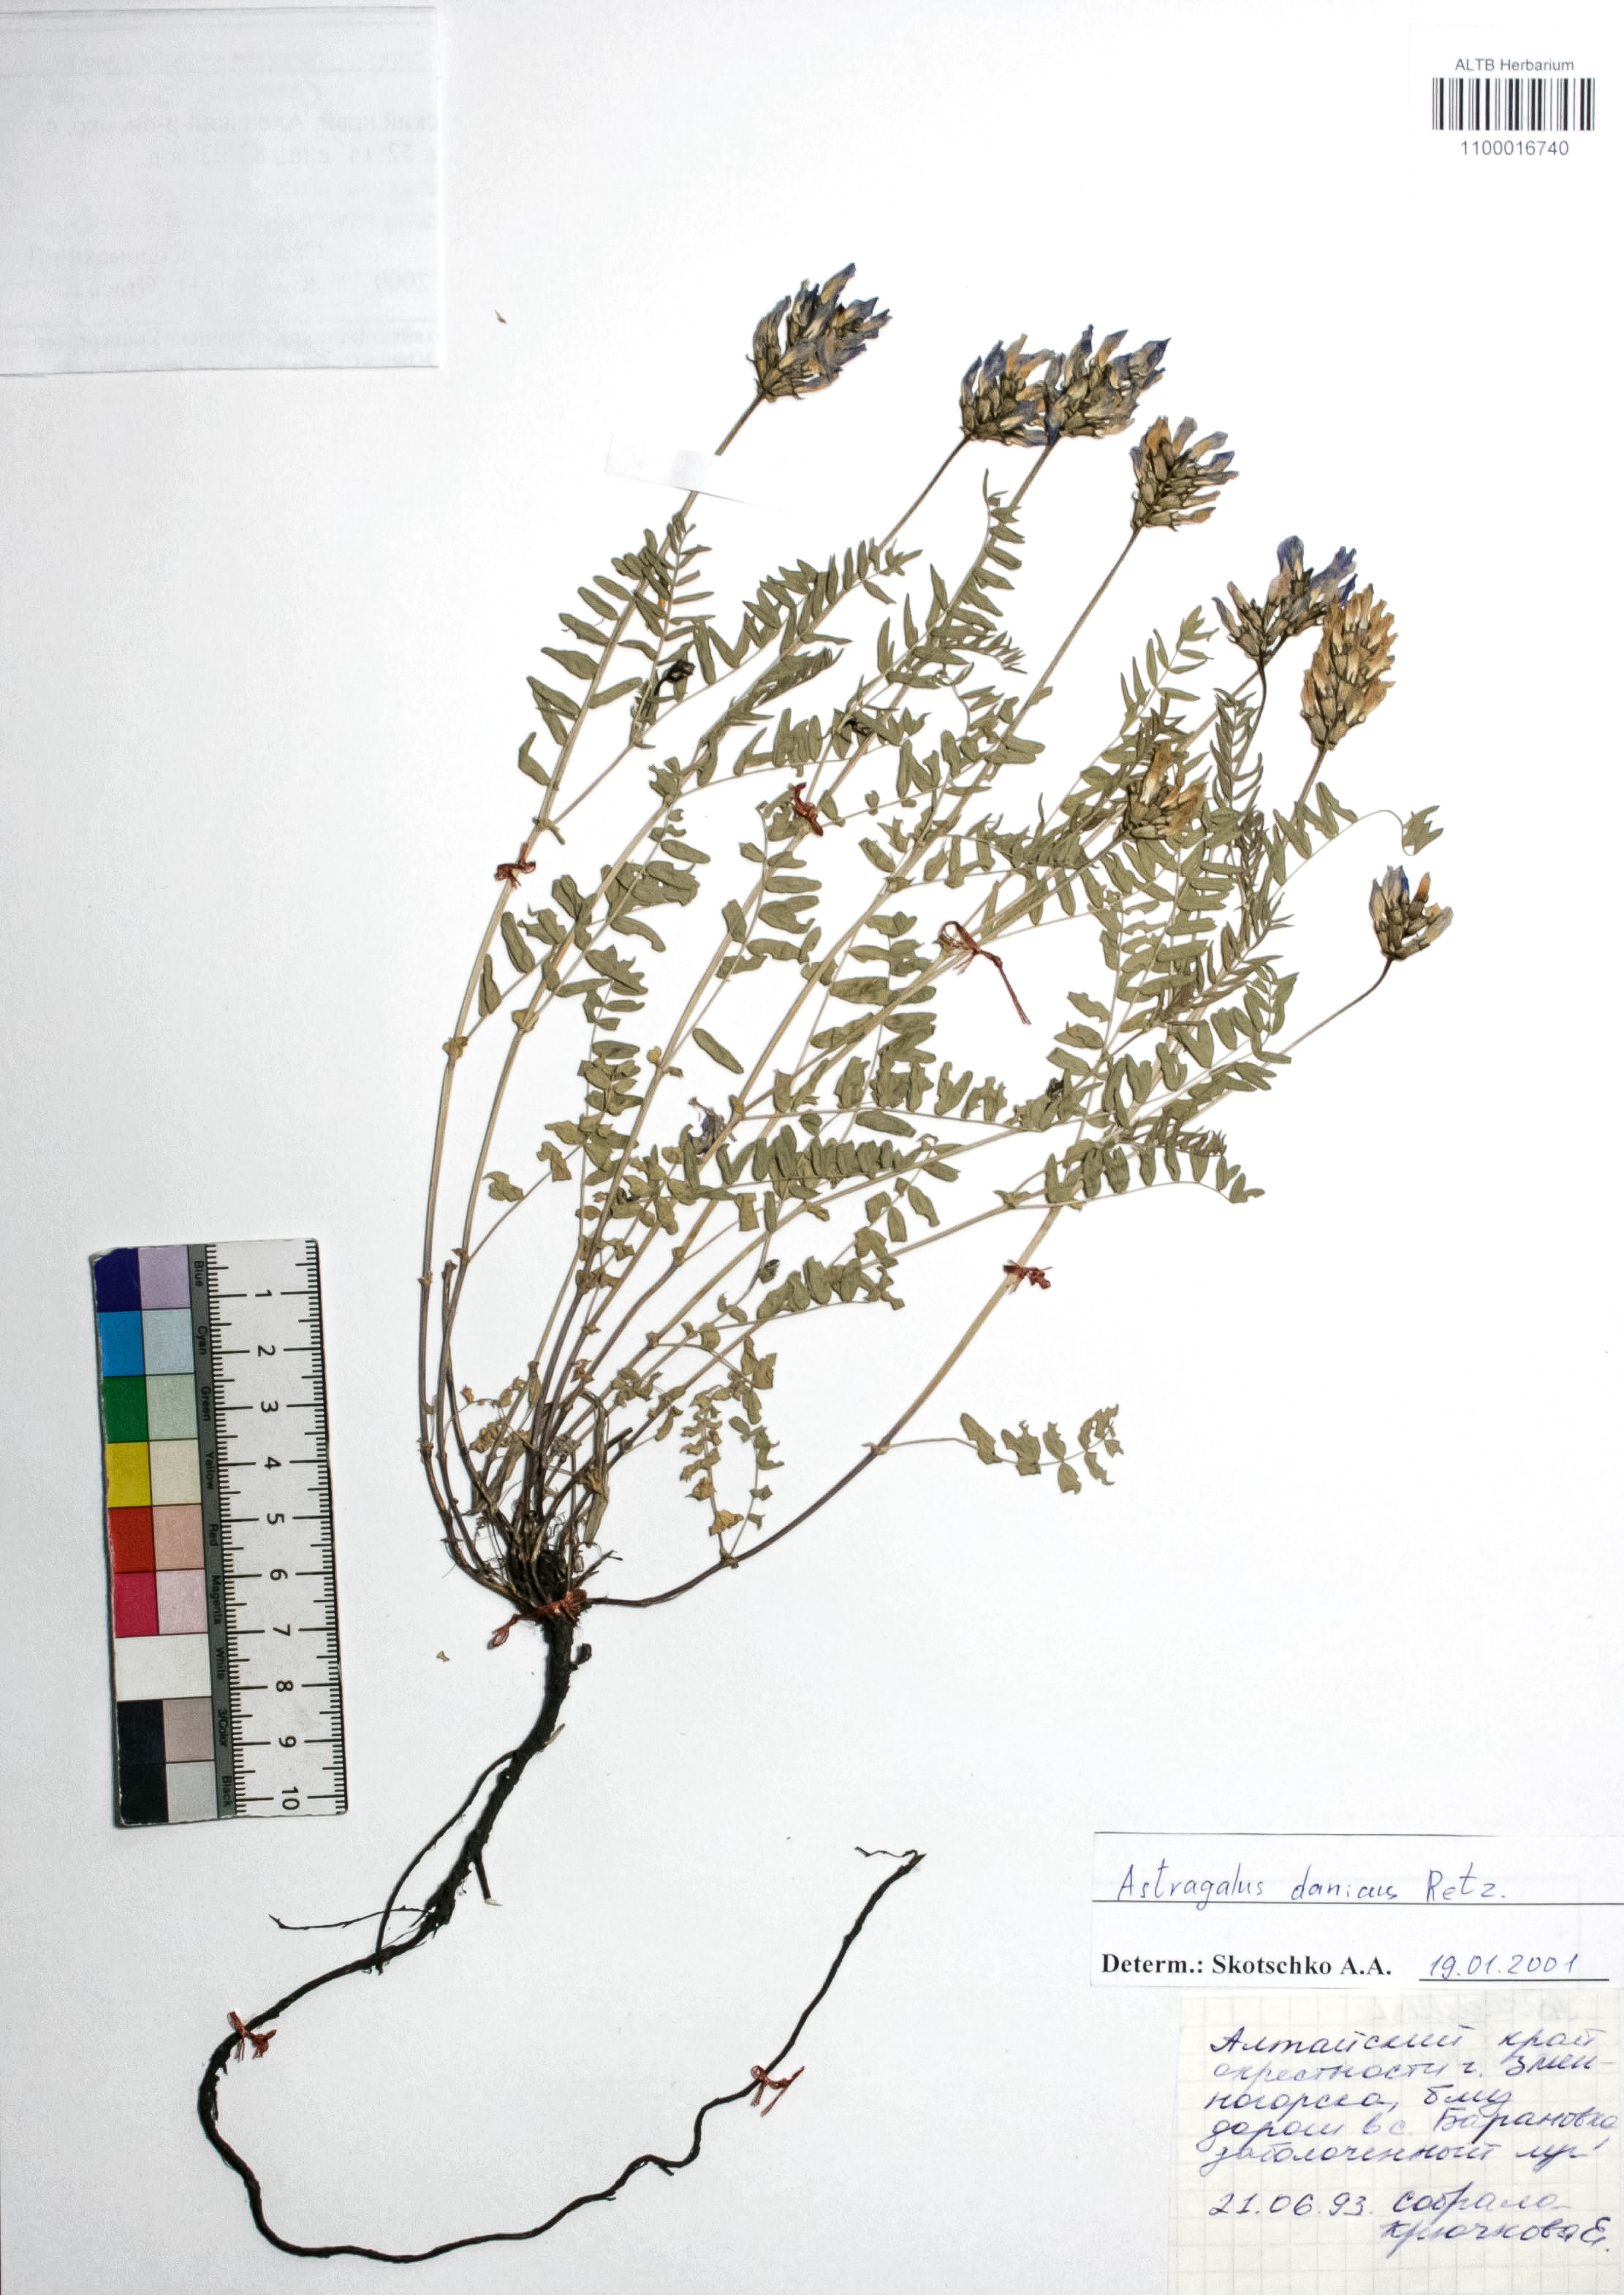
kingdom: Plantae
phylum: Tracheophyta
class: Magnoliopsida
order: Fabales
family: Fabaceae
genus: Astragalus
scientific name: Astragalus danicus
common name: Purple milk-vetch
